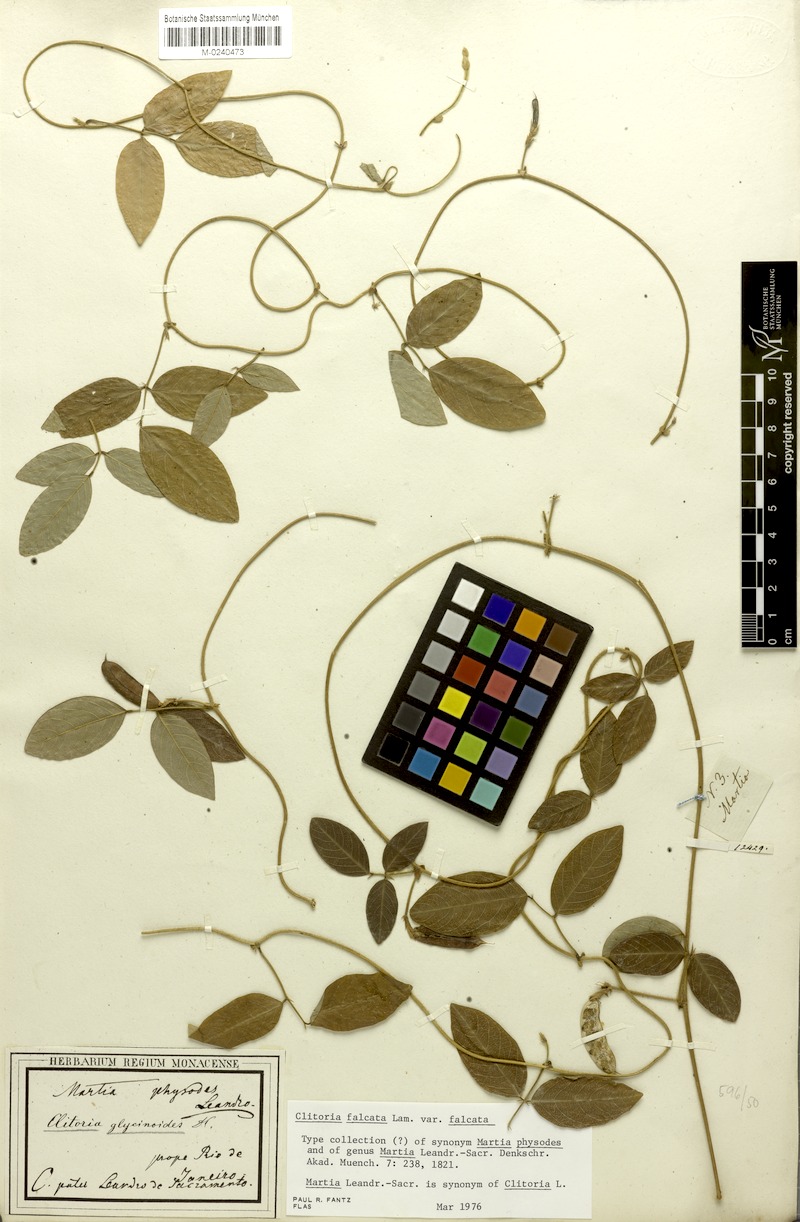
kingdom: Plantae
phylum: Tracheophyta
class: Magnoliopsida
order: Fabales
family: Fabaceae
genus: Clitoria
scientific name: Clitoria falcata
